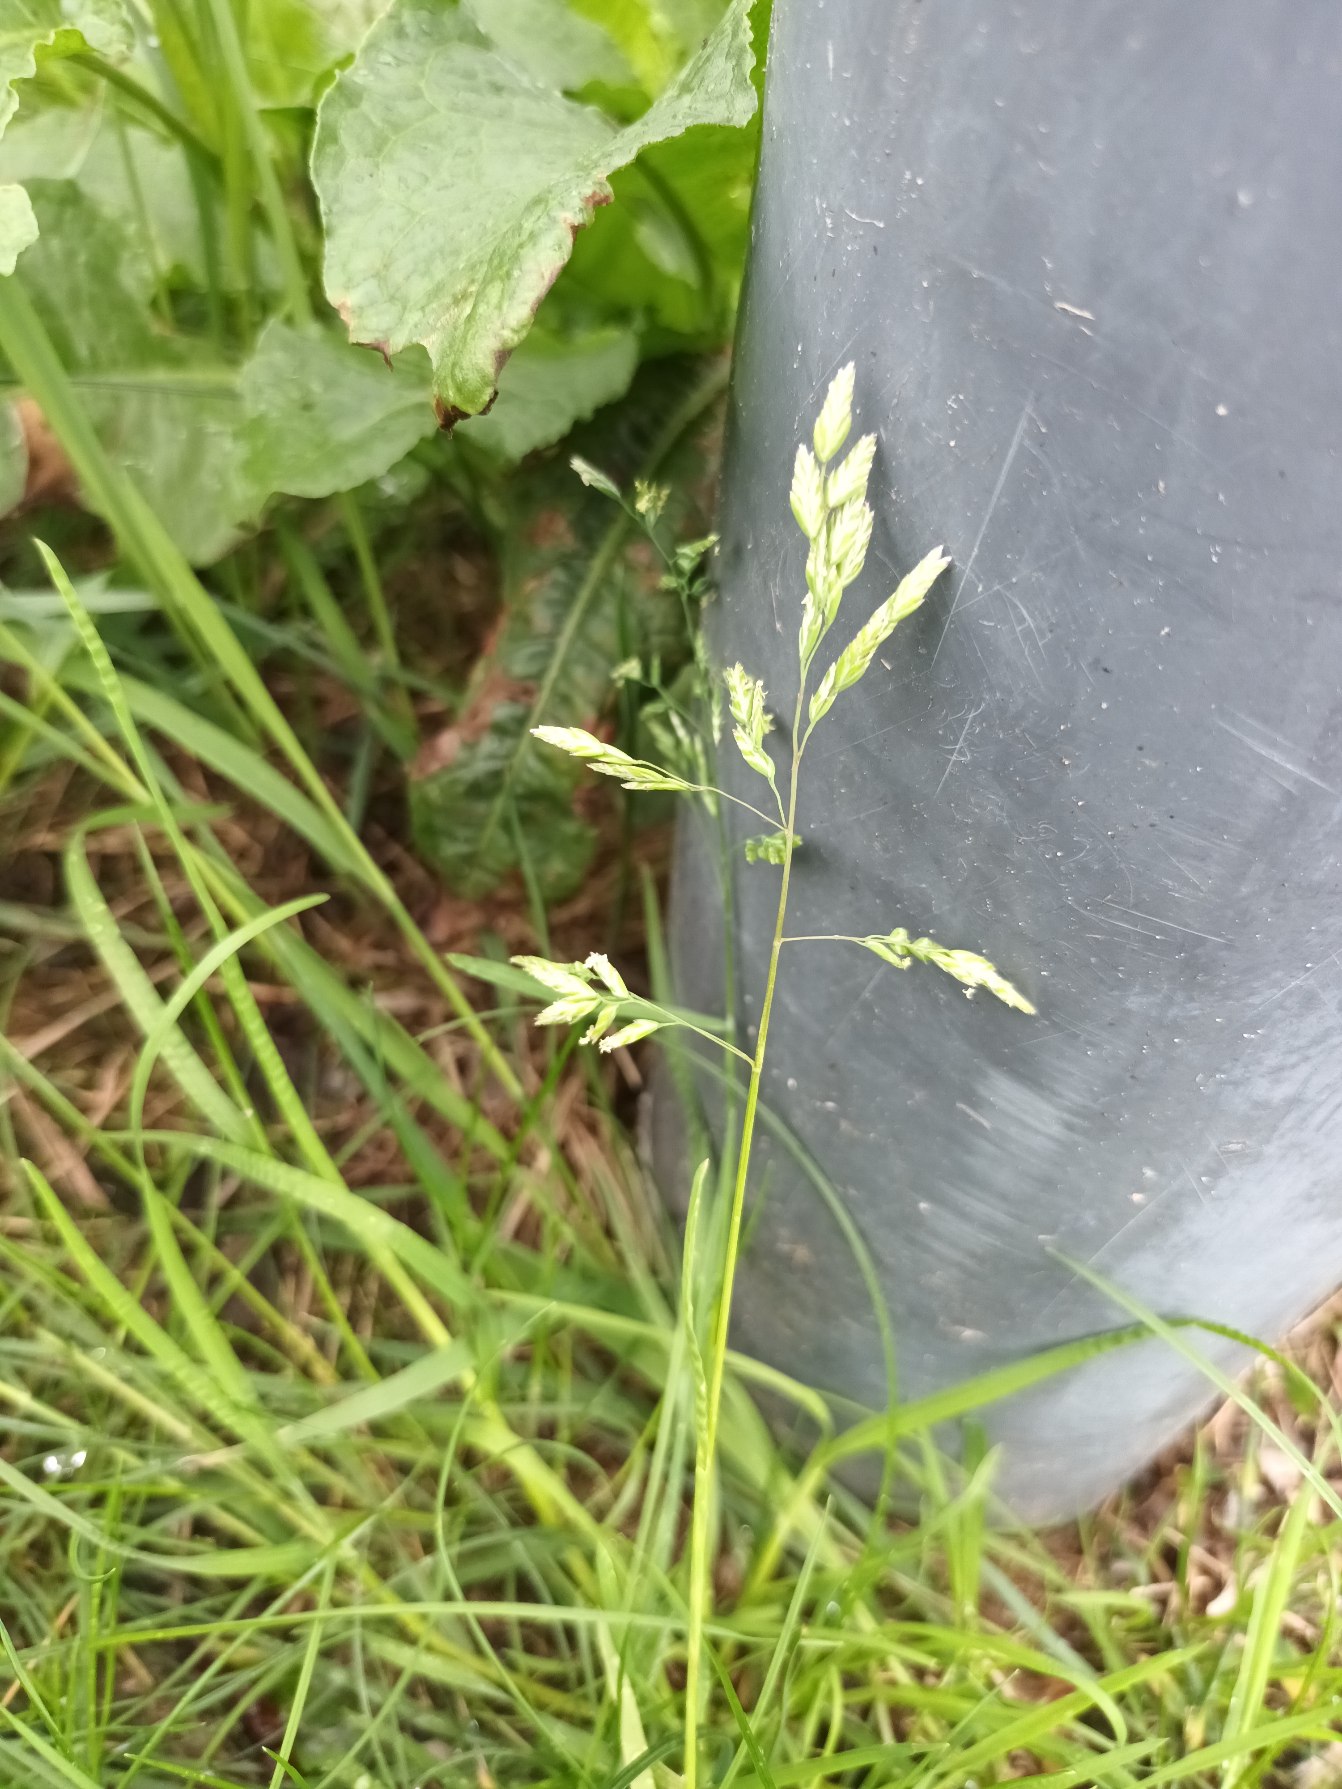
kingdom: Plantae
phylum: Tracheophyta
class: Liliopsida
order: Poales
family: Poaceae
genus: Poa
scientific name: Poa annua
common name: Enårig rapgræs
